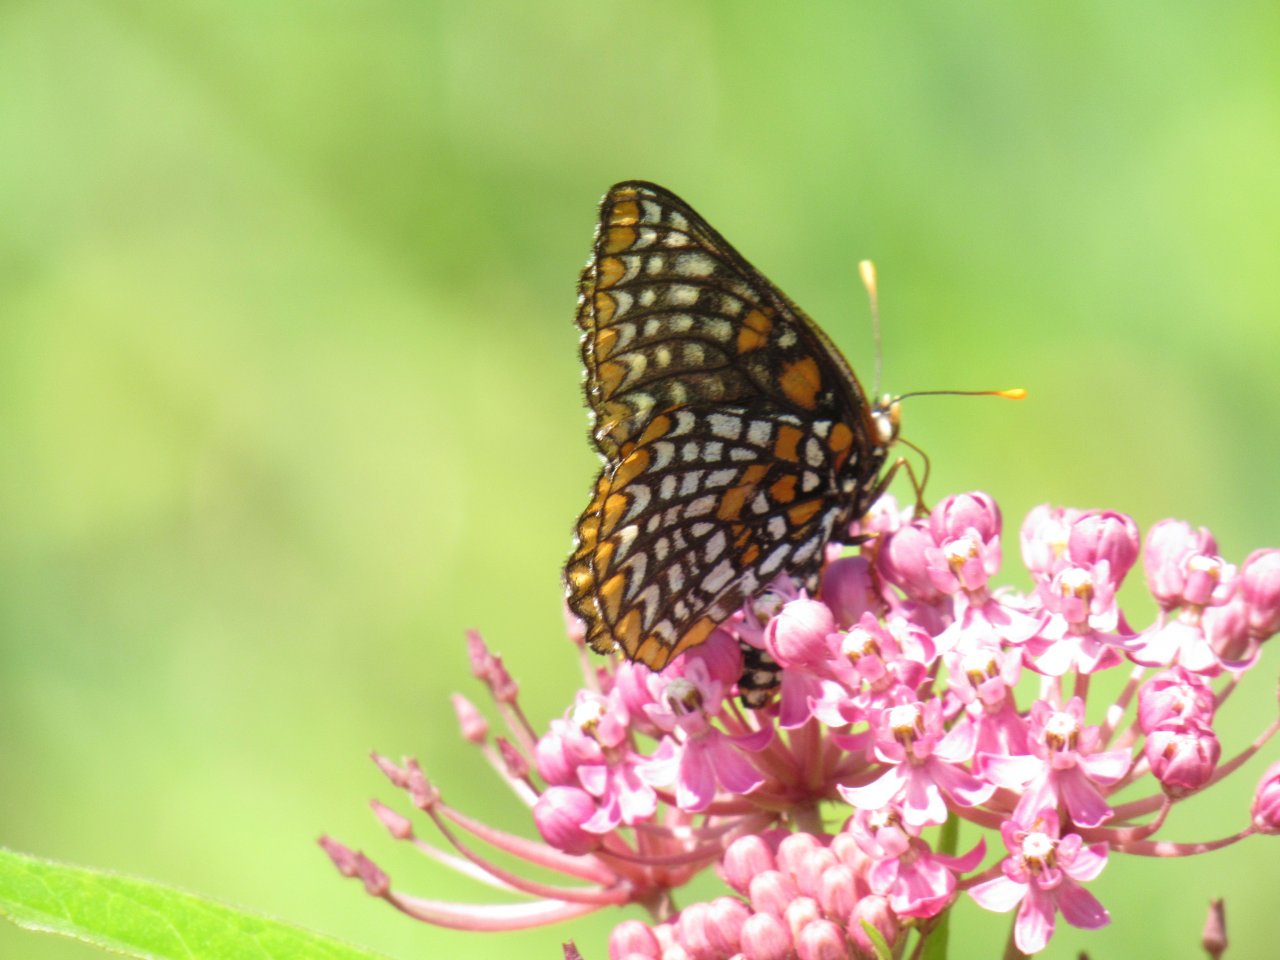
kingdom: Animalia
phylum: Arthropoda
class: Insecta
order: Lepidoptera
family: Nymphalidae
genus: Euphydryas
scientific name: Euphydryas phaeton
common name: Baltimore Checkerspot
